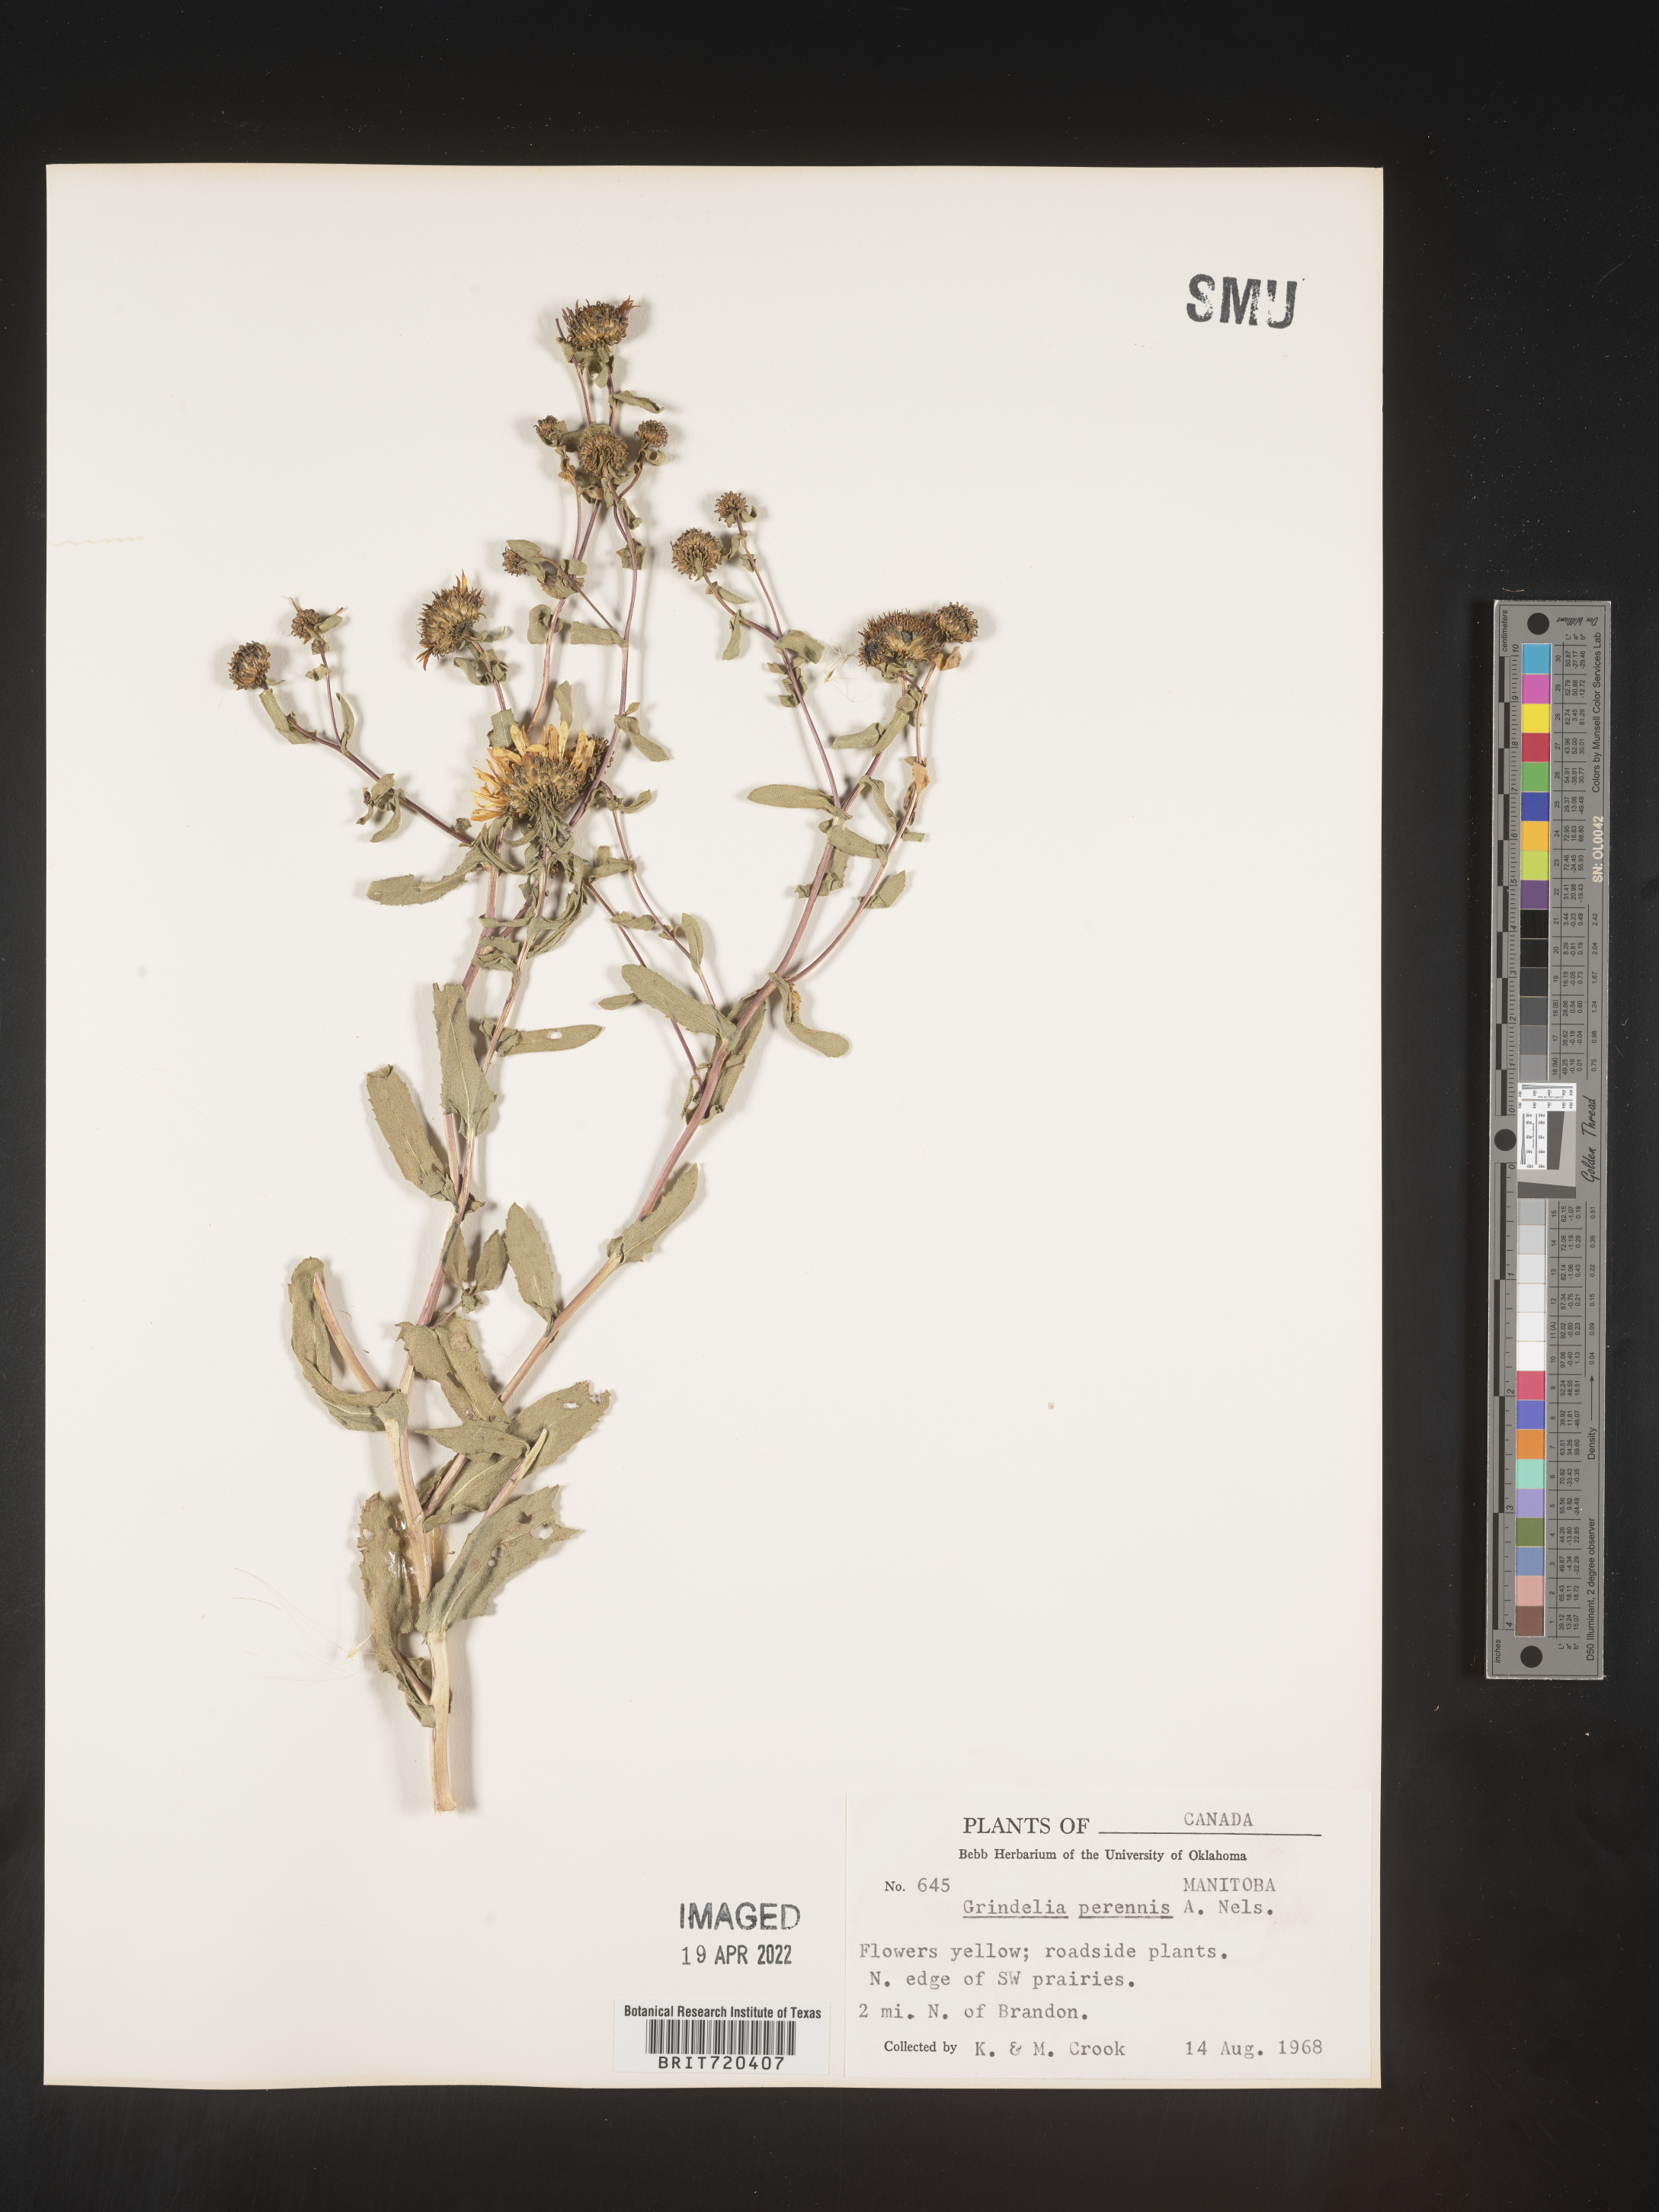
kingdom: Plantae
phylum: Tracheophyta
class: Magnoliopsida
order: Asterales
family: Asteraceae
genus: Grindelia
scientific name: Grindelia squarrosa
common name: Curly-cup gumweed
